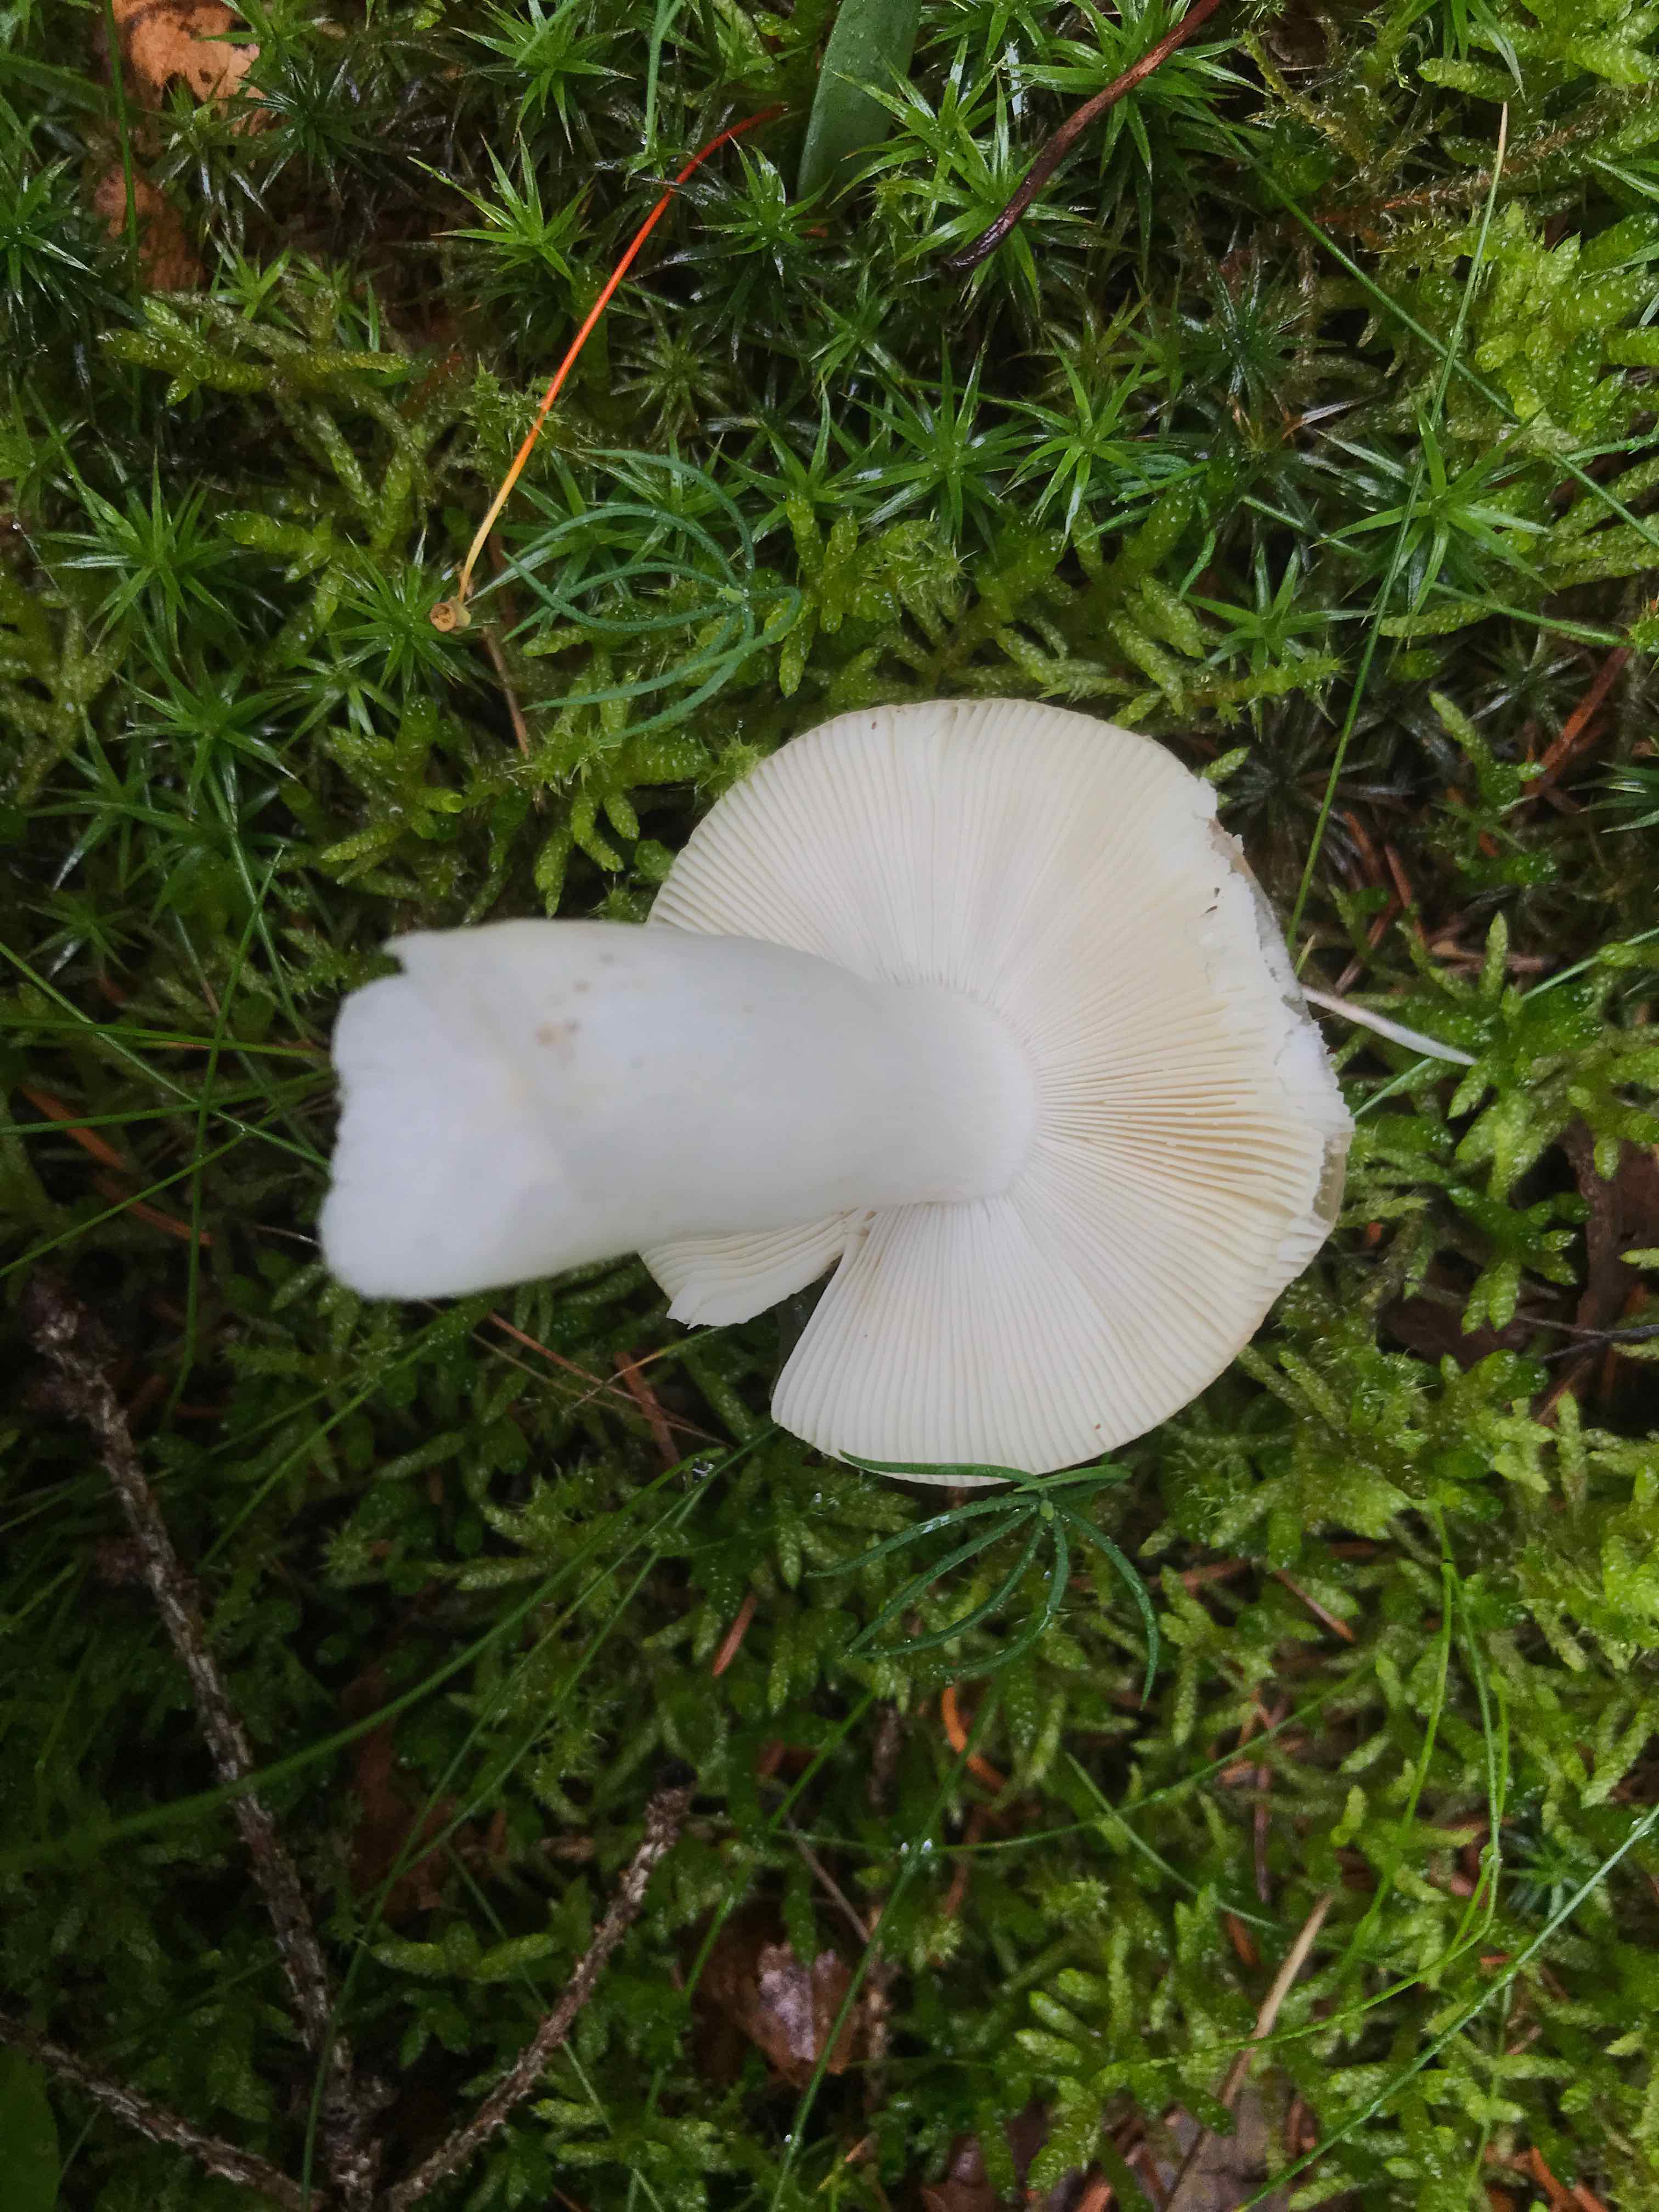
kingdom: Fungi
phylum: Basidiomycota
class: Agaricomycetes
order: Russulales
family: Russulaceae
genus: Russula
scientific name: Russula betularum
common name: bleg gift-skørhat
